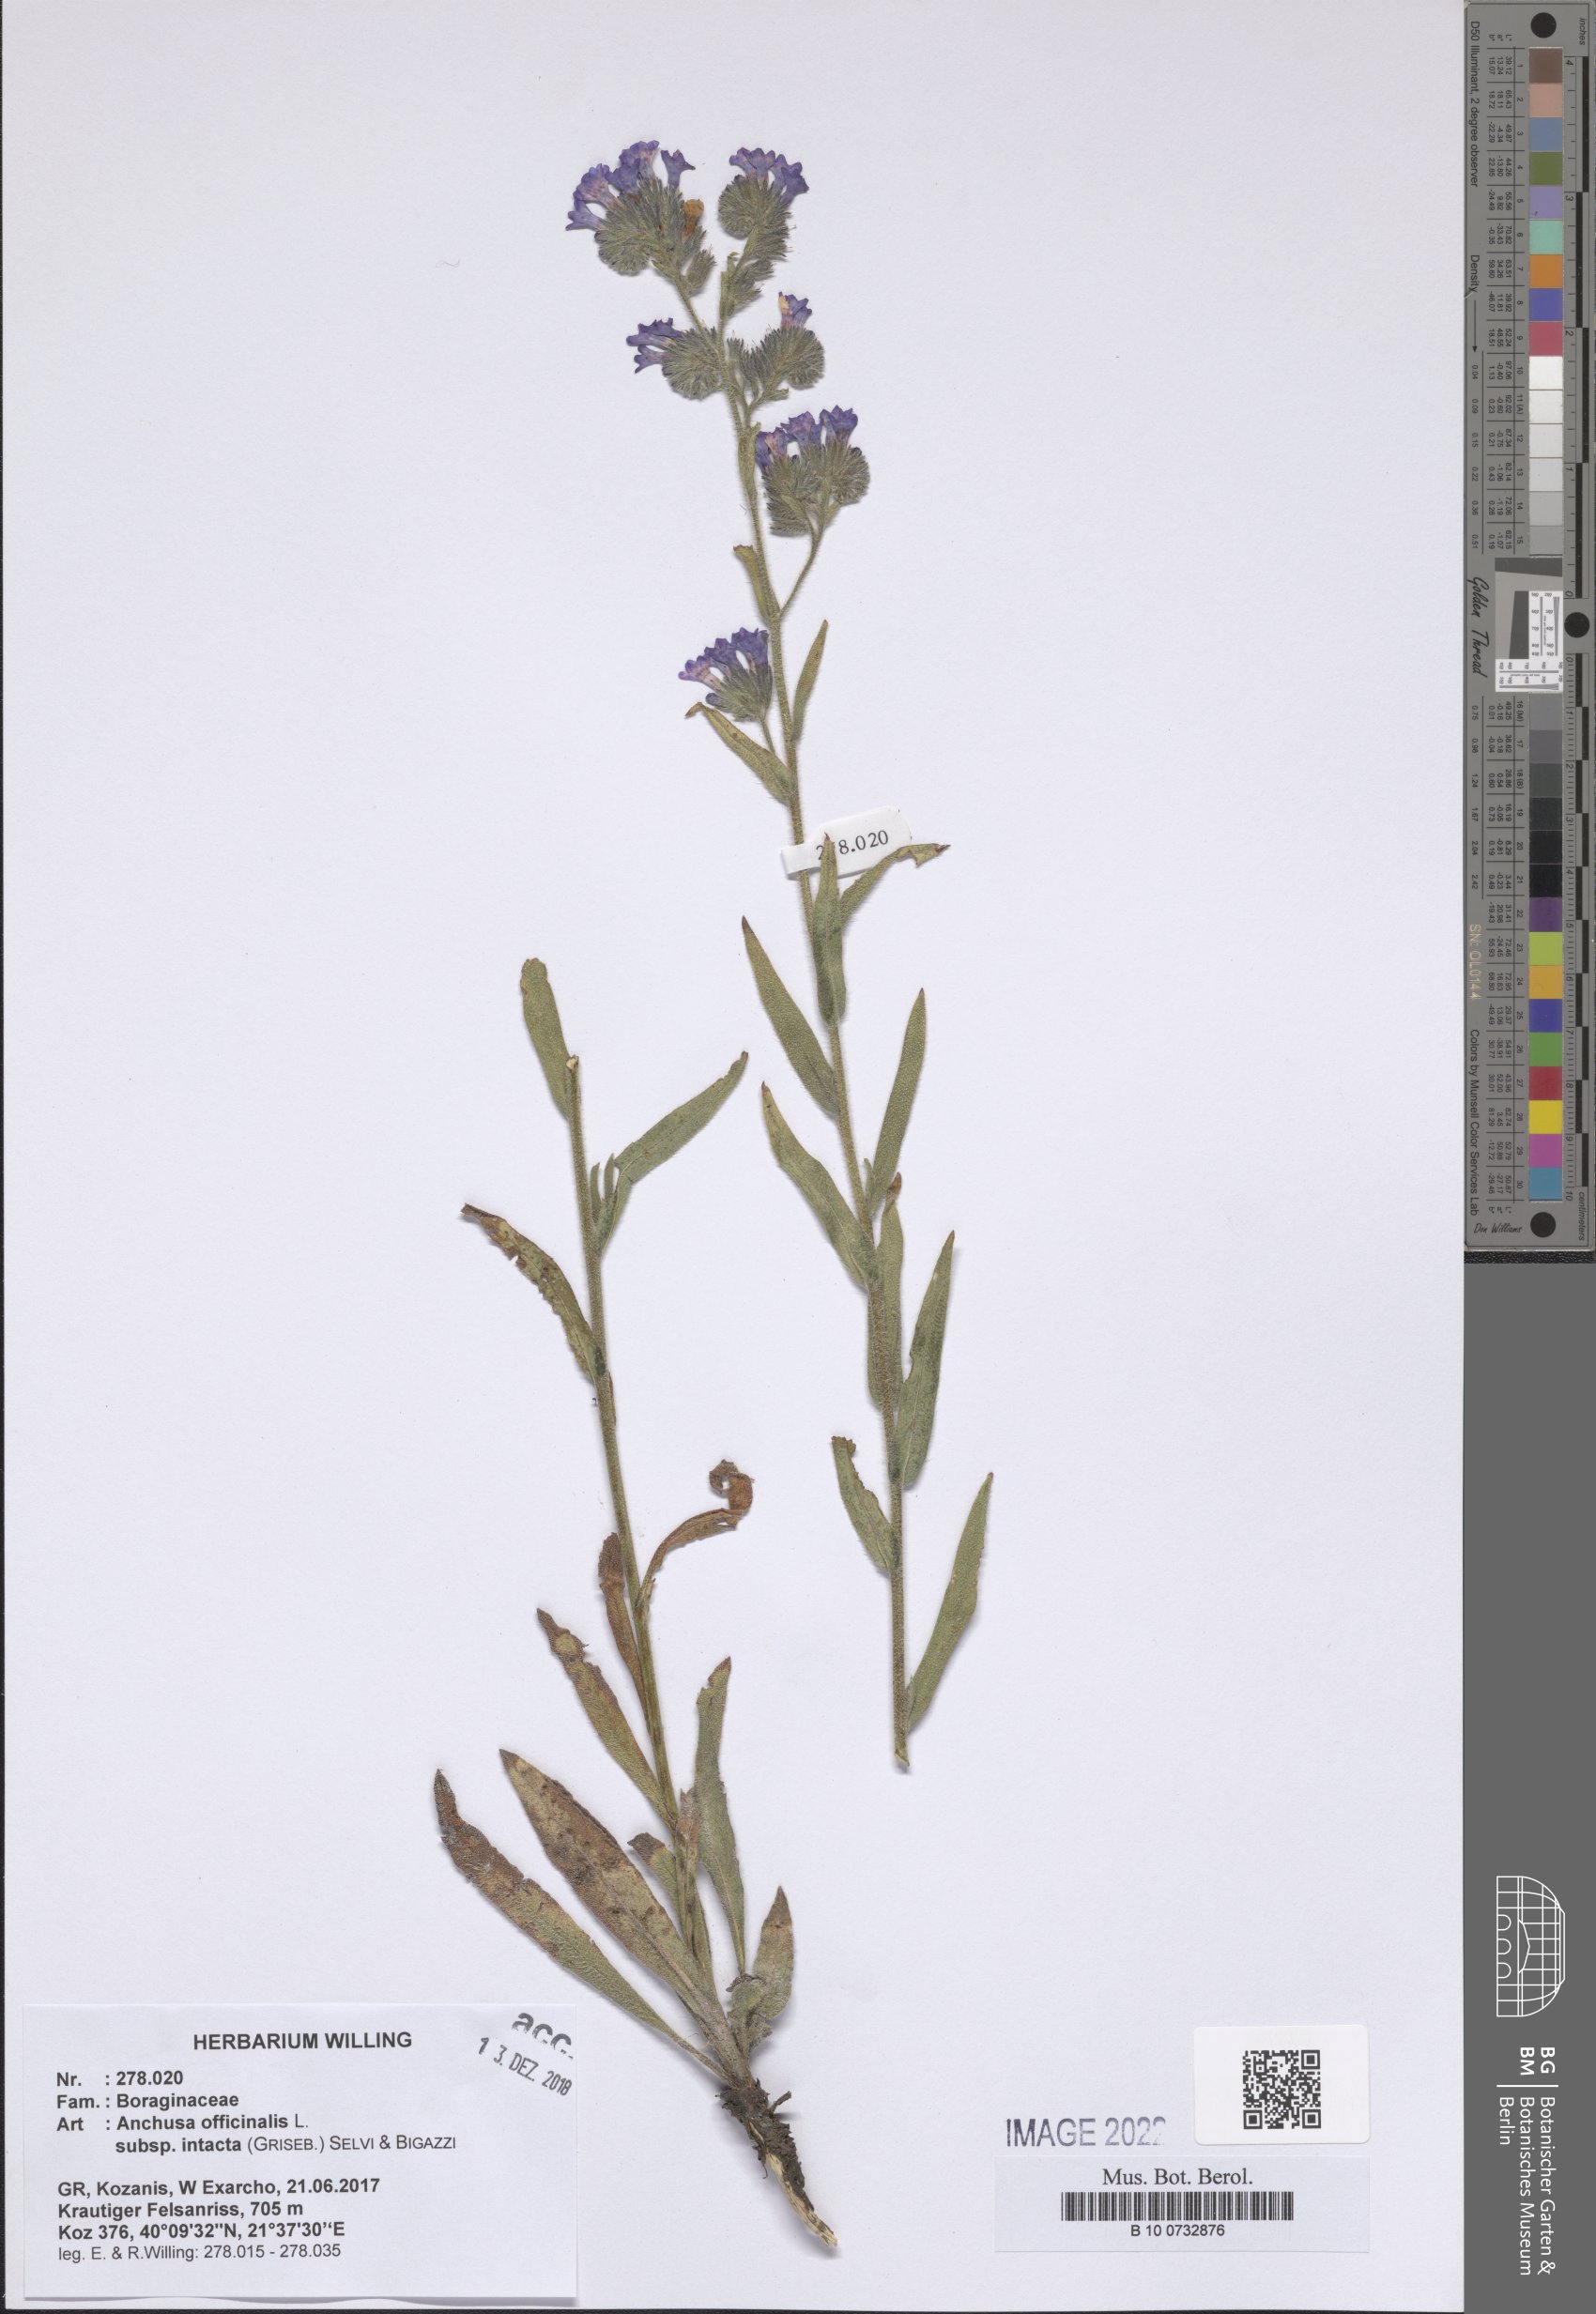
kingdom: Plantae
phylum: Tracheophyta
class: Magnoliopsida
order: Boraginales
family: Boraginaceae
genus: Anchusa
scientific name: Anchusa officinalis
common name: Alkanet
